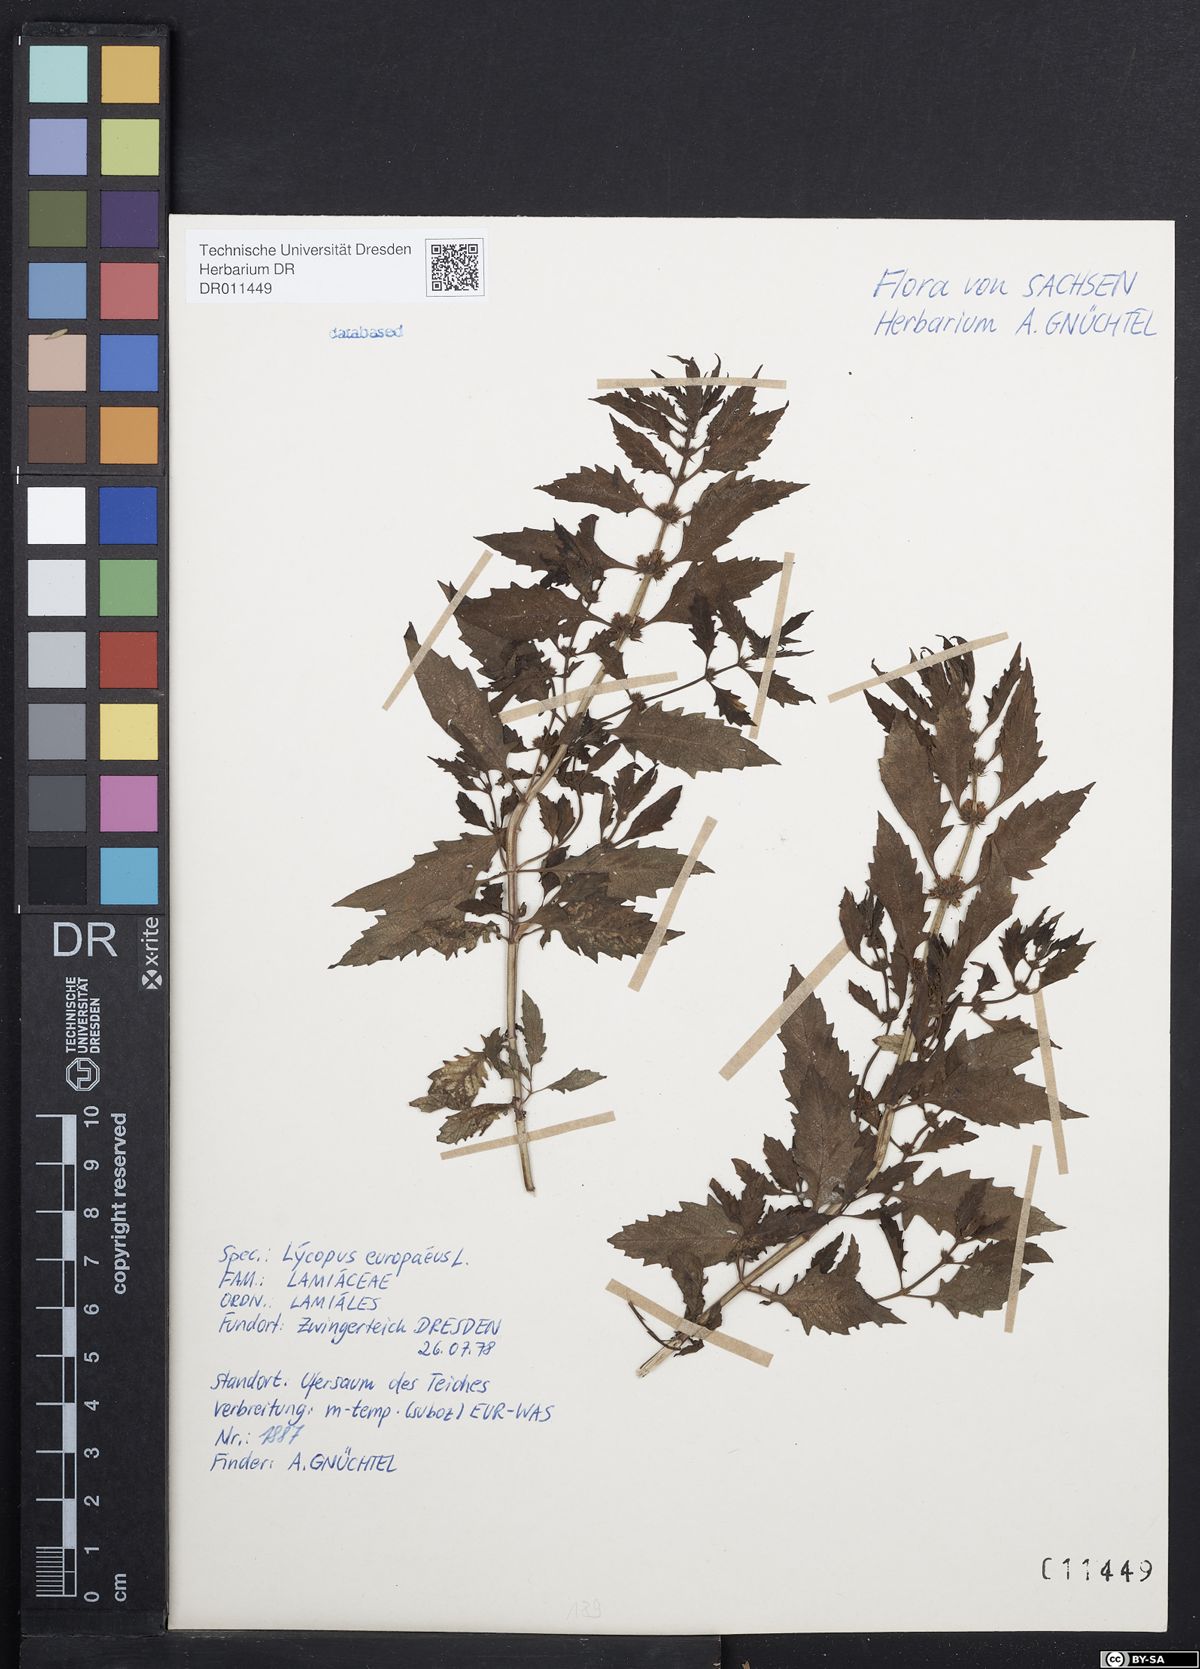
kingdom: Plantae
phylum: Tracheophyta
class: Magnoliopsida
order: Lamiales
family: Lamiaceae
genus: Lycopus
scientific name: Lycopus europaeus
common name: European bugleweed
